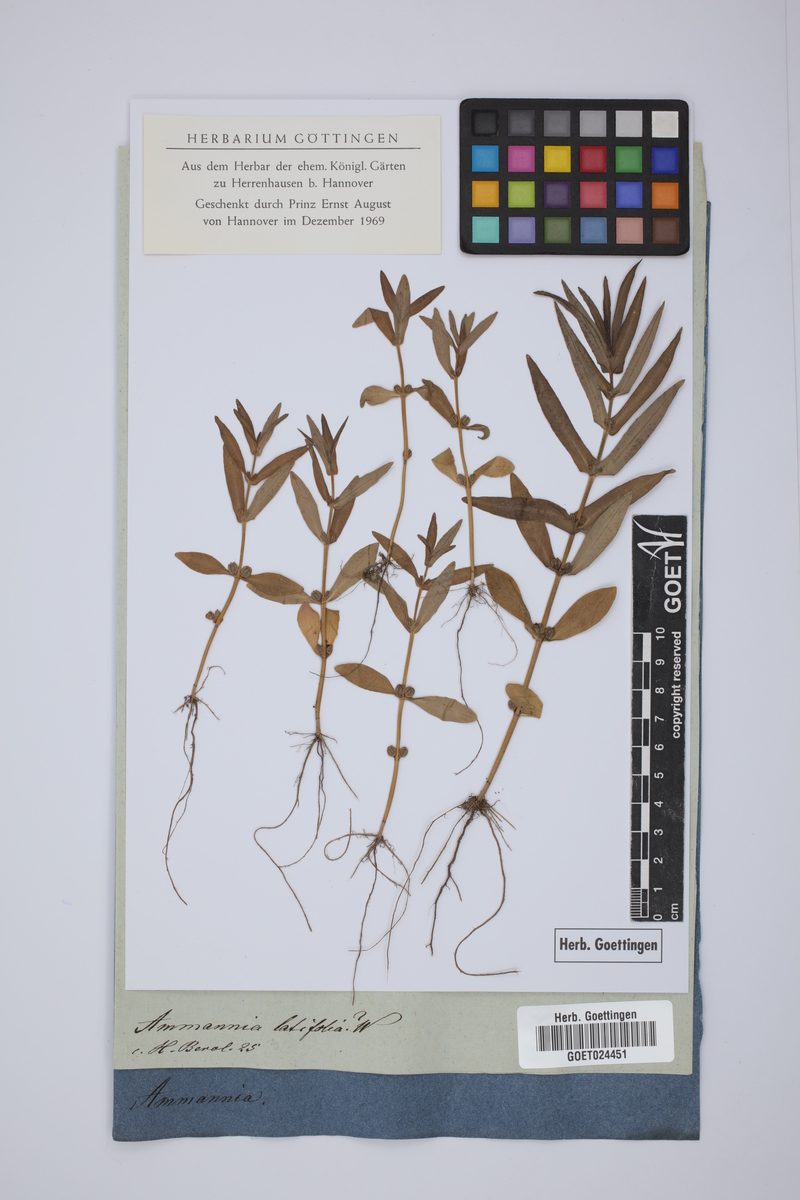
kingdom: Plantae
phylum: Tracheophyta
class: Magnoliopsida
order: Myrtales
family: Lythraceae
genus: Ammannia
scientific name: Ammannia coccinea
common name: Valley redstem
